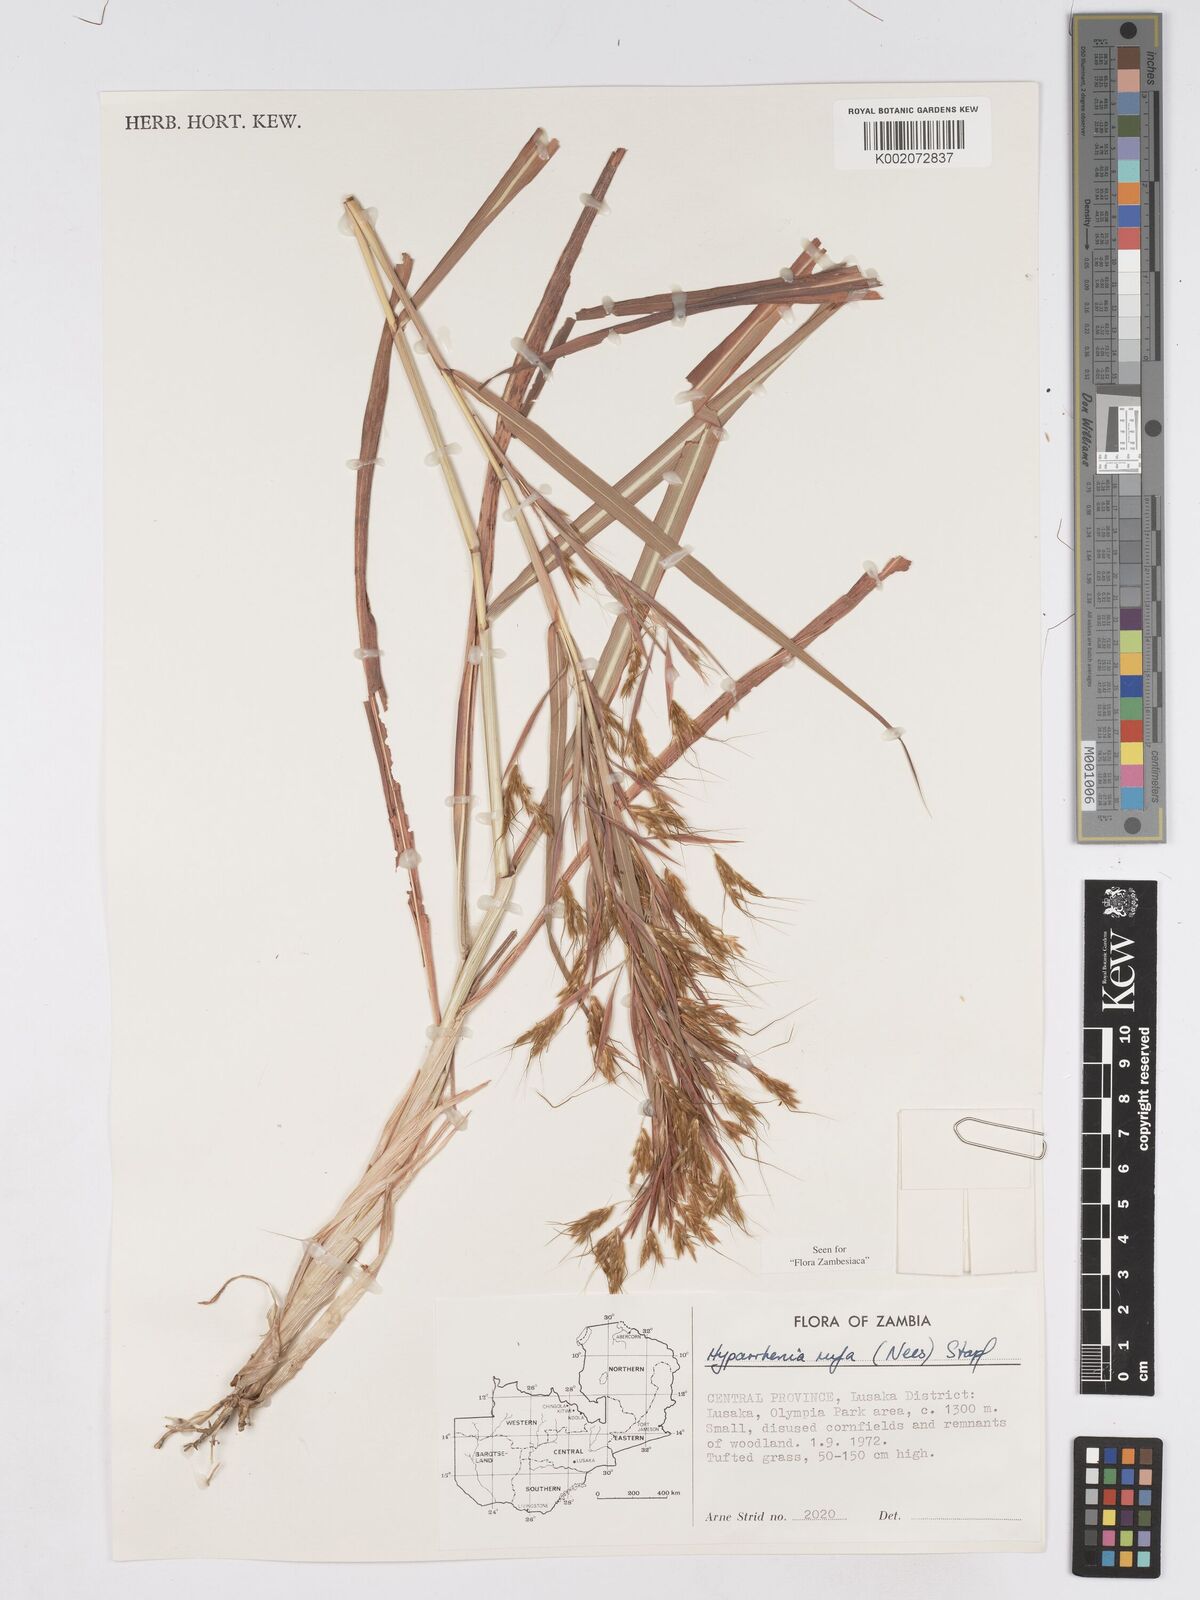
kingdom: Plantae
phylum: Tracheophyta
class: Liliopsida
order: Poales
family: Poaceae
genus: Hyparrhenia
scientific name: Hyparrhenia rufa
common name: Jaraguagrass
